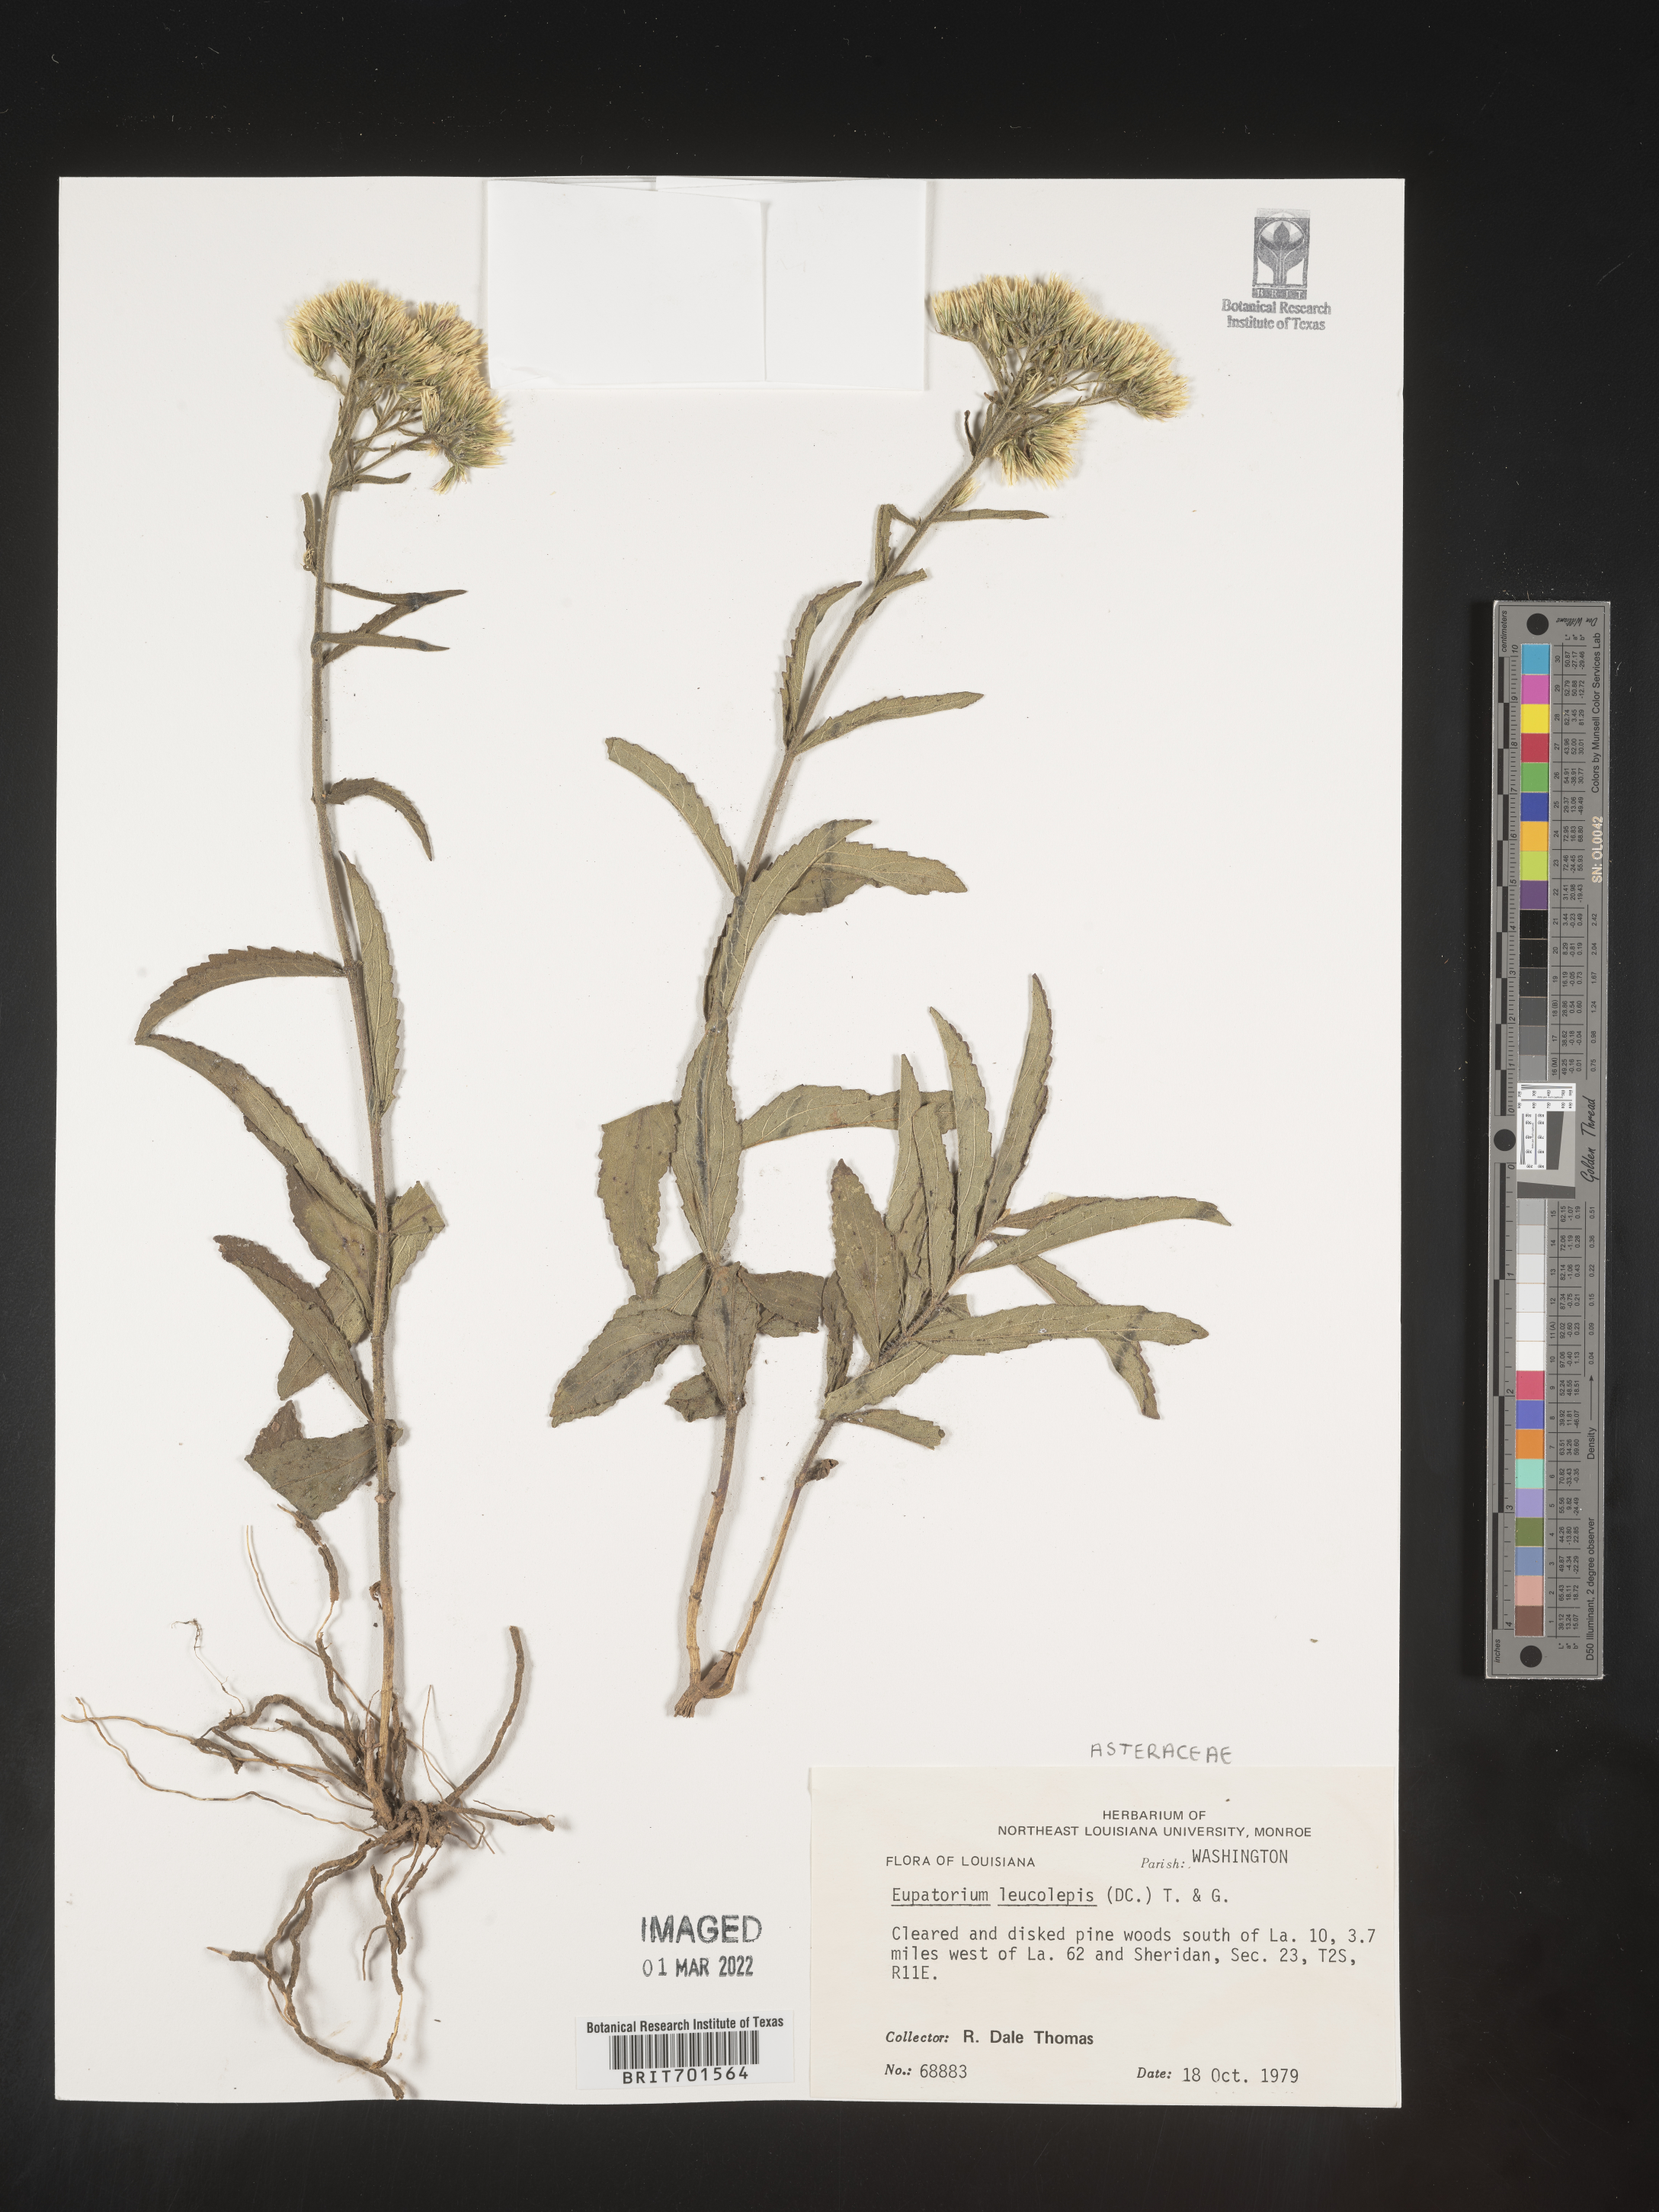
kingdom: Plantae
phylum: Tracheophyta
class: Magnoliopsida
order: Asterales
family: Asteraceae
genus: Eupatorium
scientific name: Eupatorium leucolepis
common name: Justiceweed
